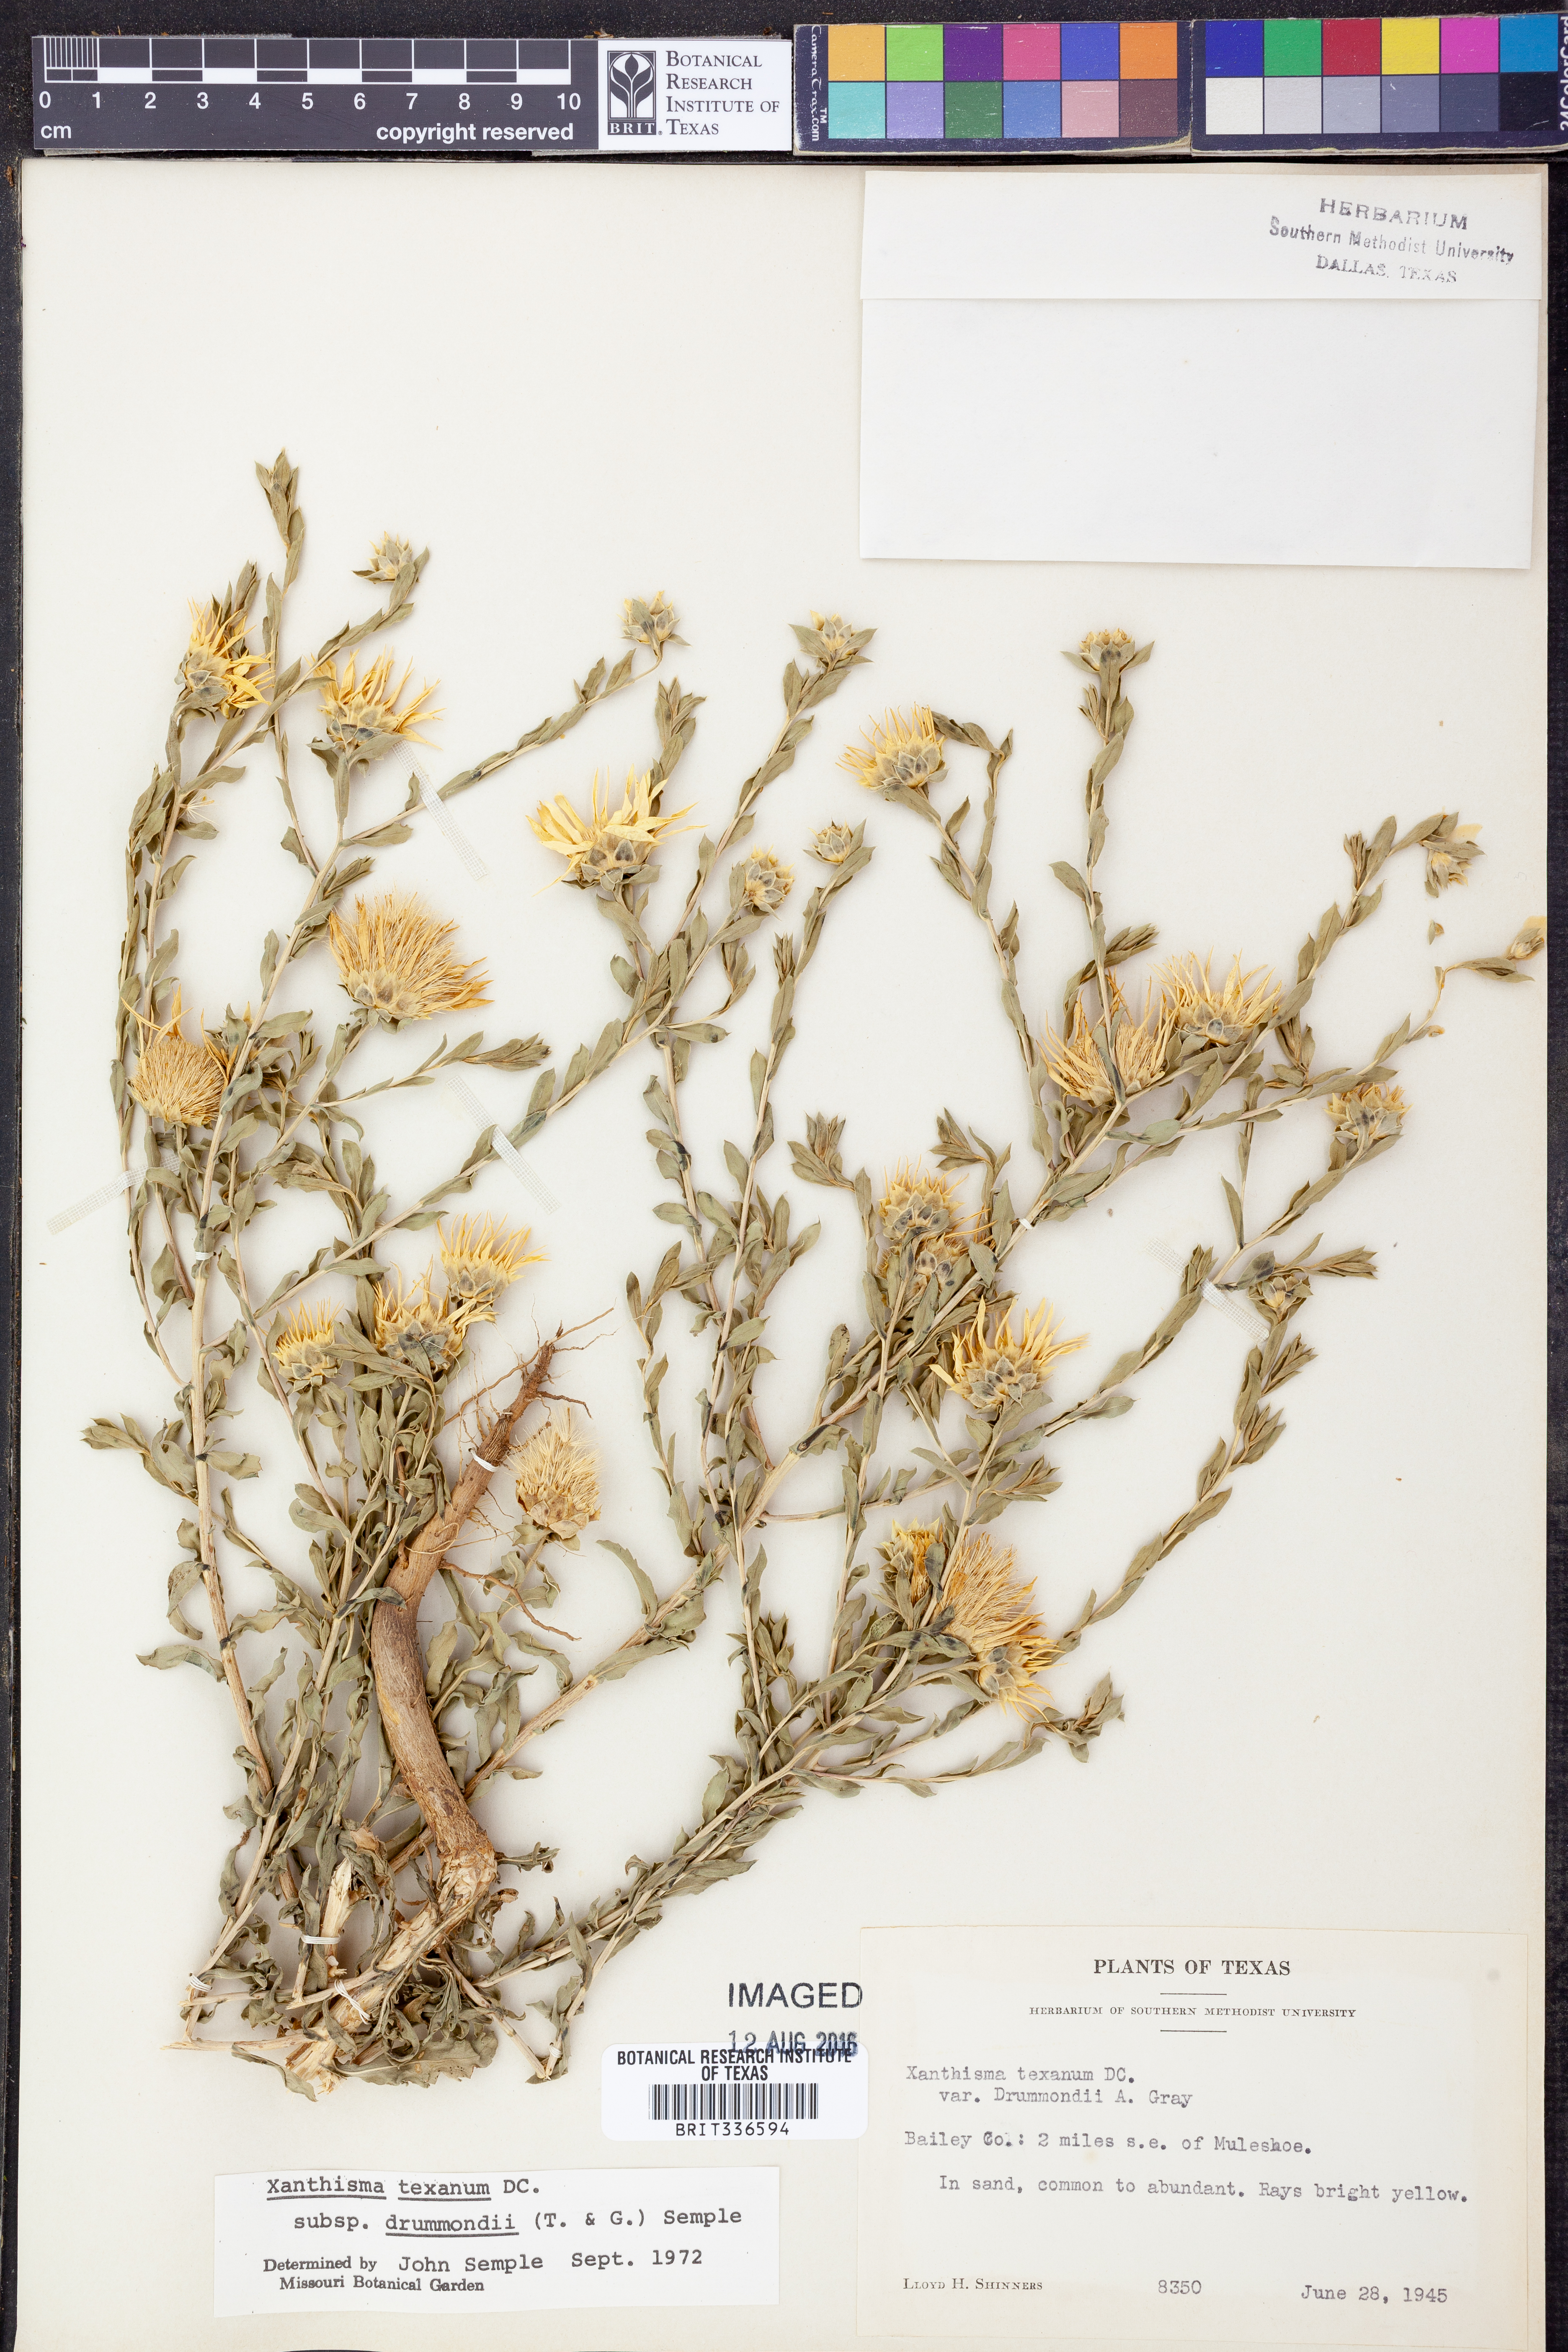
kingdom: Plantae
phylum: Tracheophyta
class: Magnoliopsida
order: Asterales
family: Asteraceae
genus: Xanthisma
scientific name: Xanthisma texanum
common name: Texas sleepy daisy
